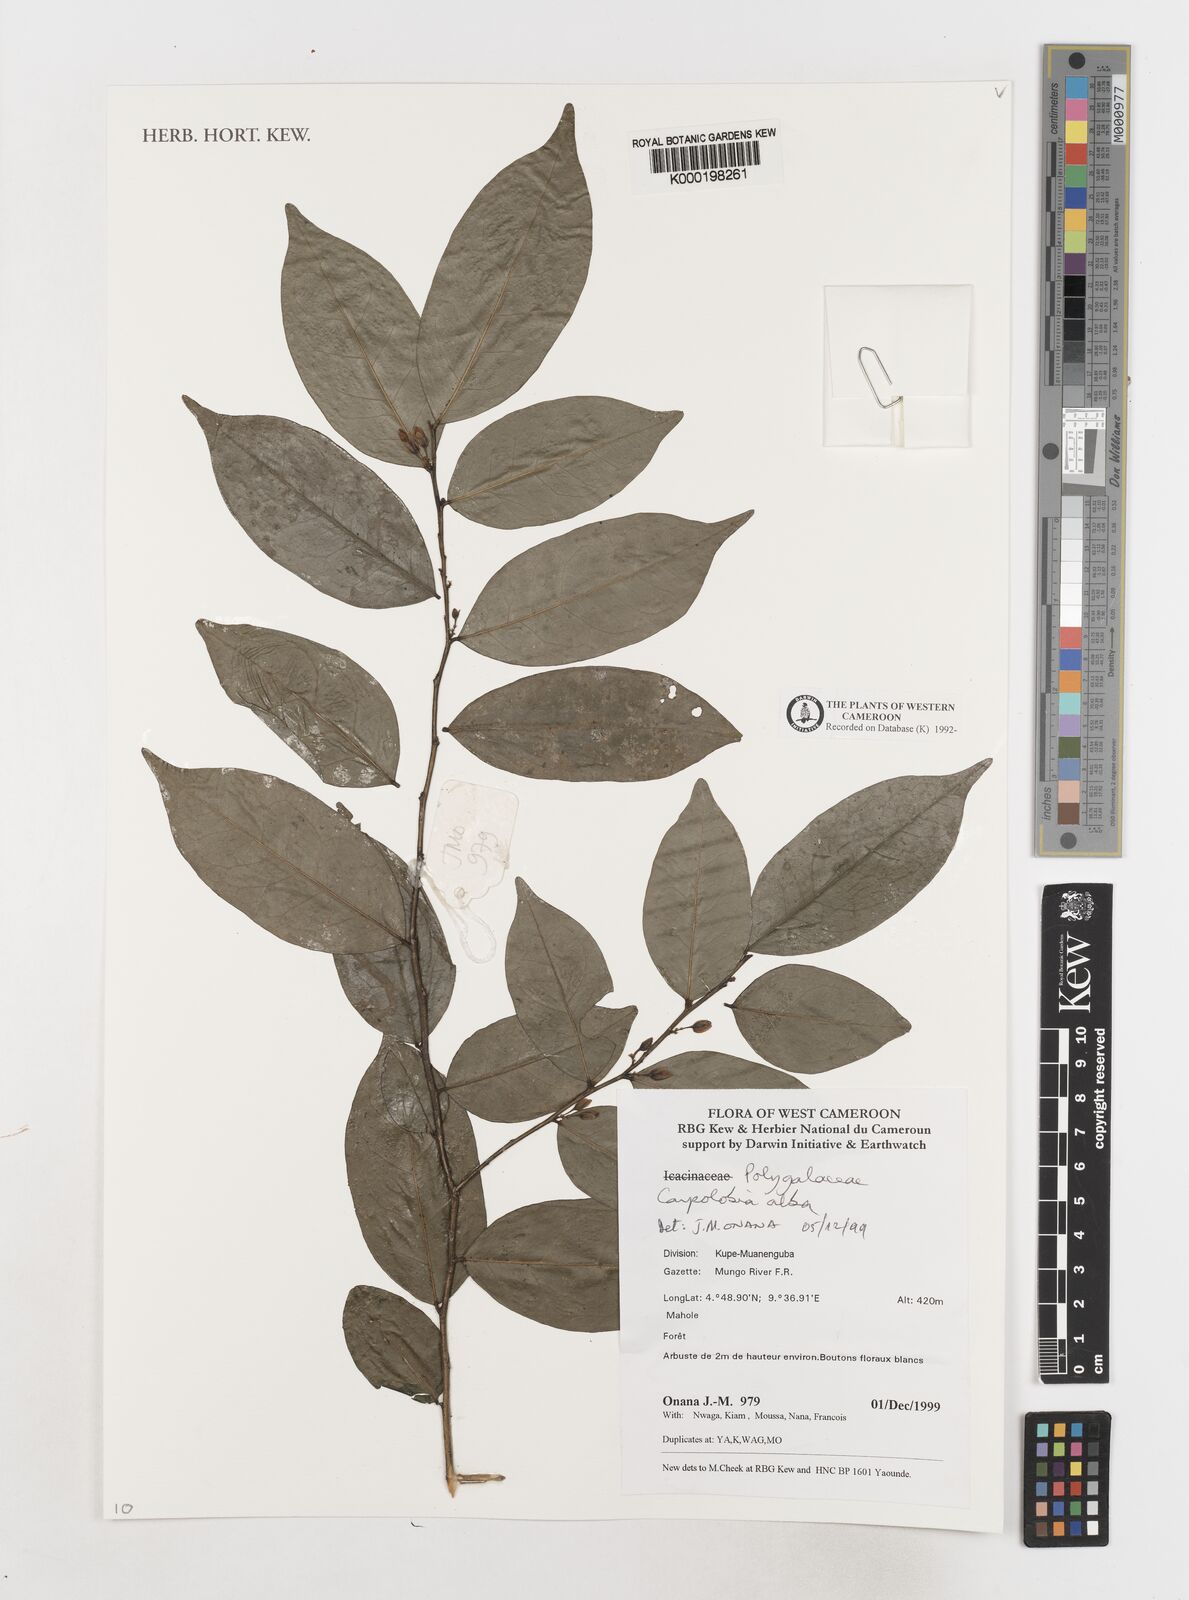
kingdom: Plantae
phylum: Tracheophyta
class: Magnoliopsida
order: Fabales
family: Polygalaceae
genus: Carpolobia
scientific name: Carpolobia alba
